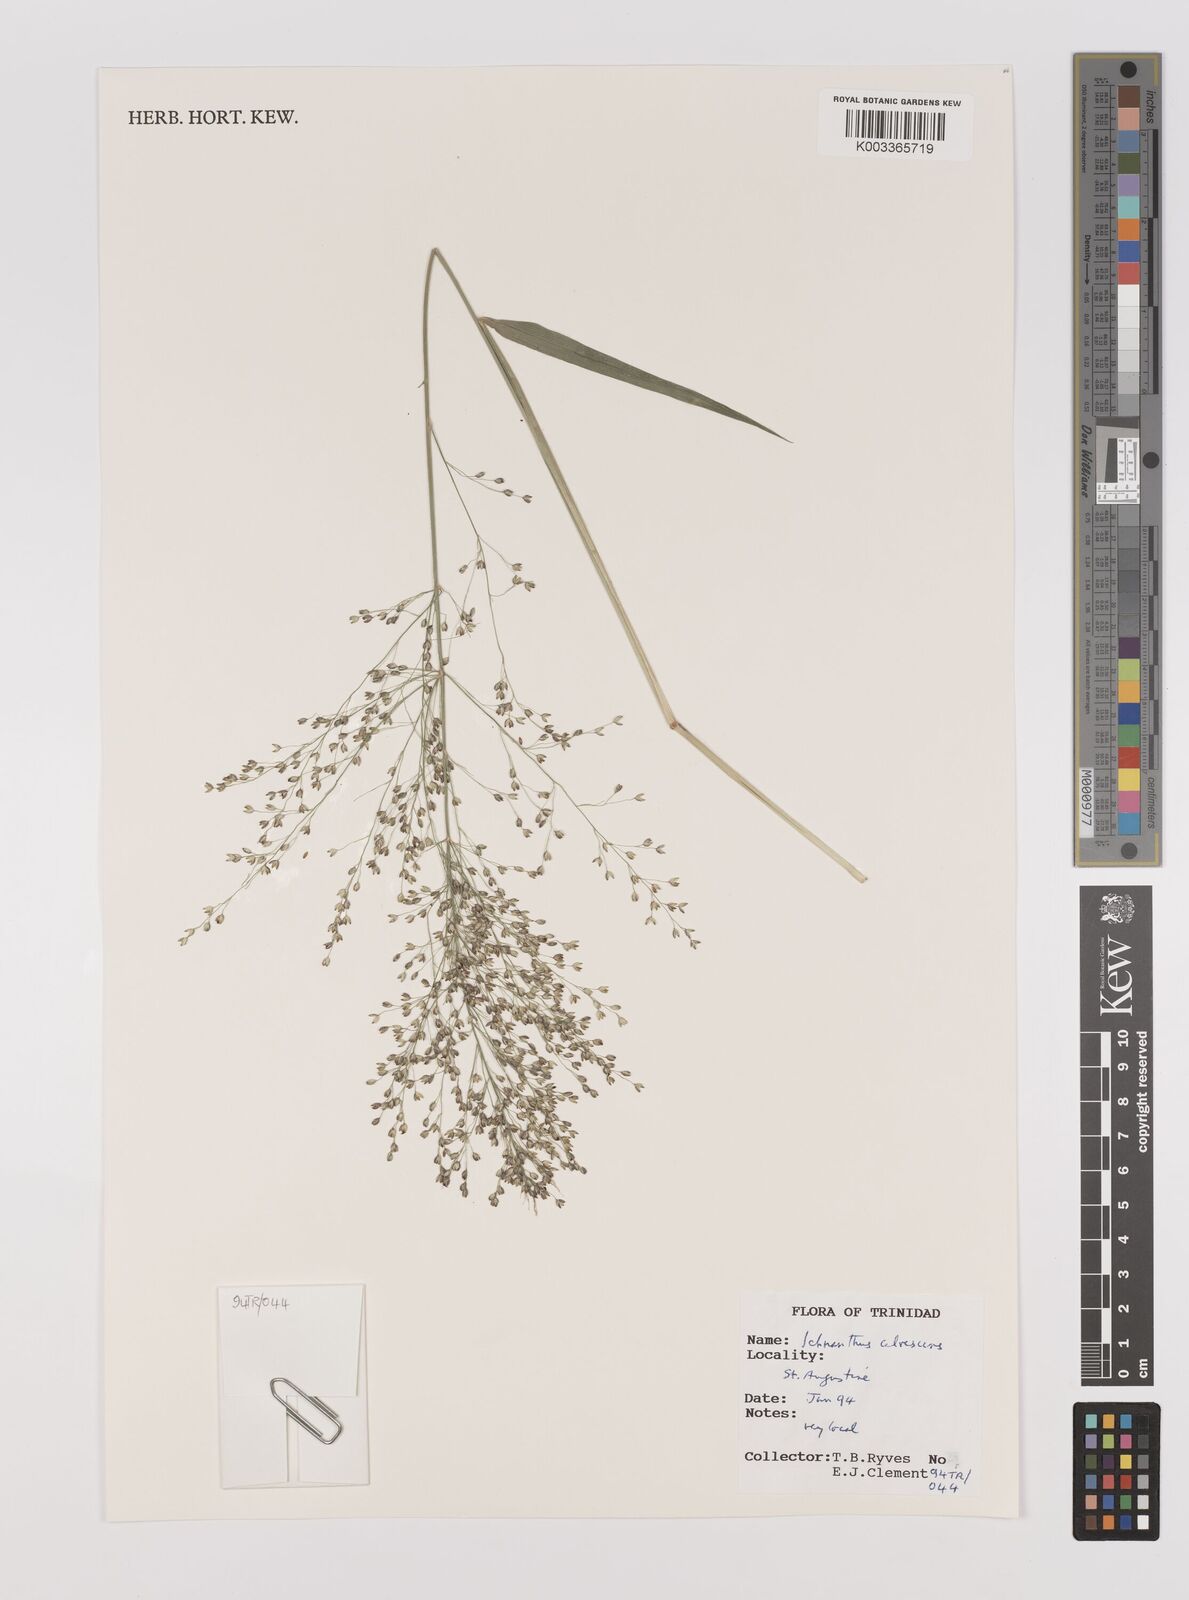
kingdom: Plantae
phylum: Tracheophyta
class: Liliopsida
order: Poales
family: Poaceae
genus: Ichnanthus
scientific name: Ichnanthus calvescens
